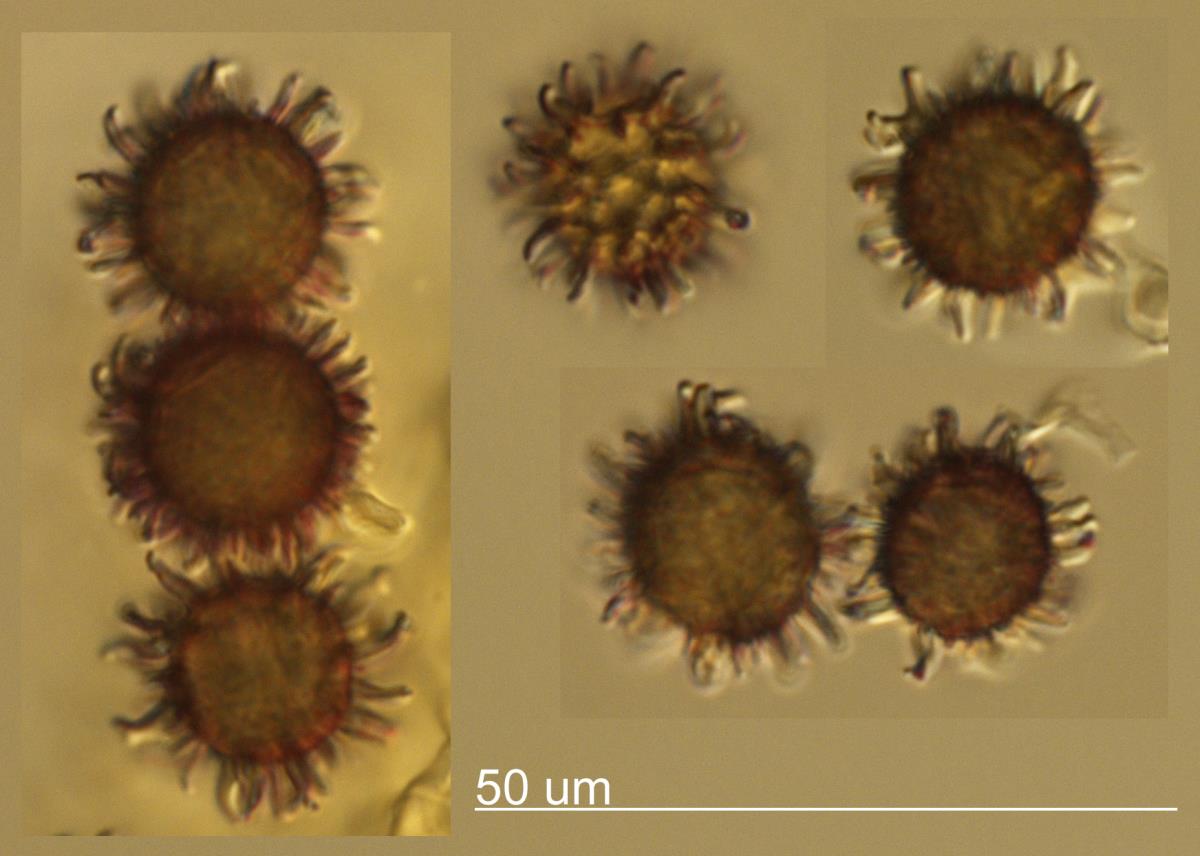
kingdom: Fungi
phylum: Basidiomycota
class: Agaricomycetes
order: Russulales
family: Russulaceae
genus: Russula
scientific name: Russula megaspora
